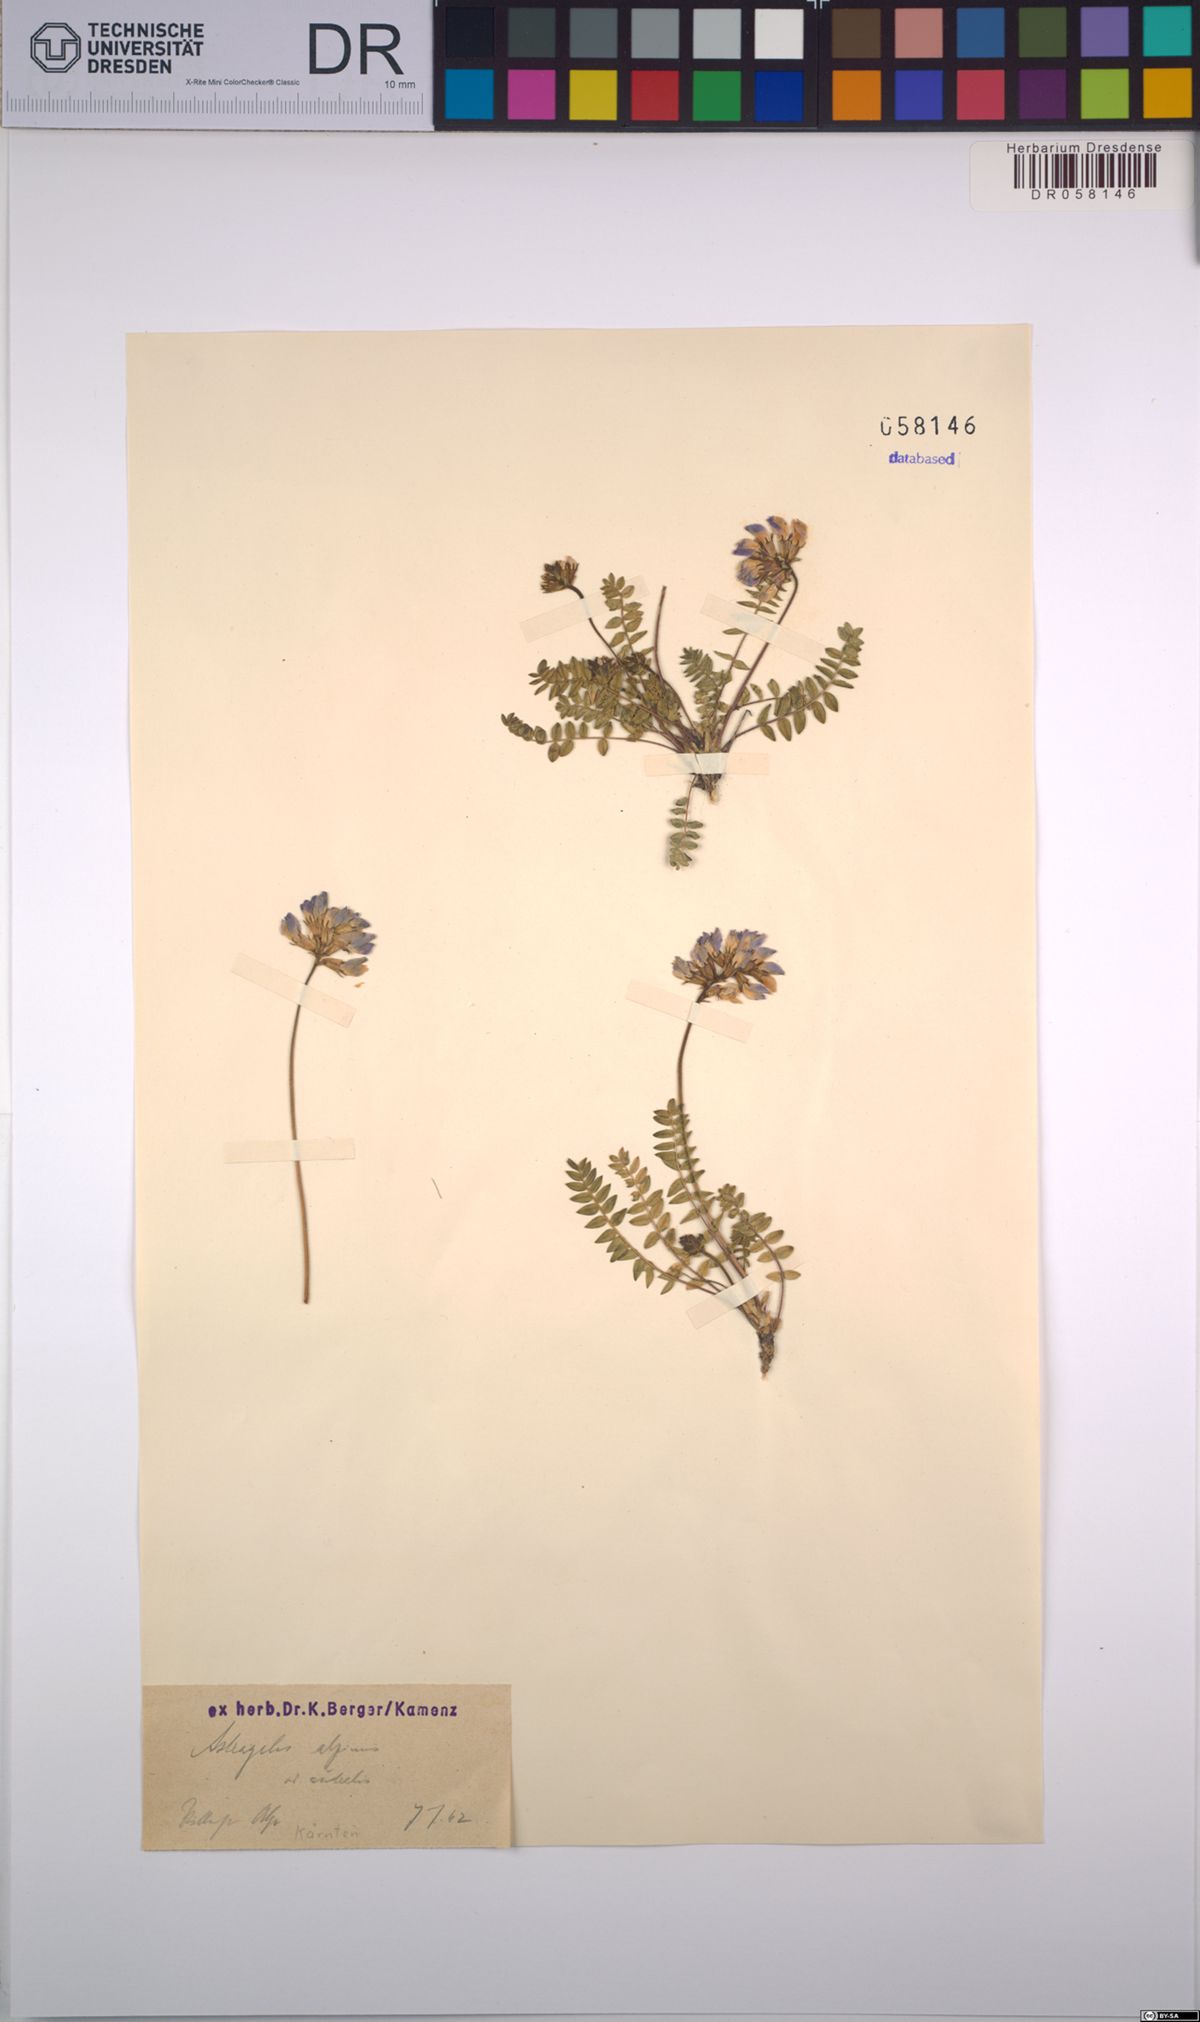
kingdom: Plantae
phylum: Tracheophyta
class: Magnoliopsida
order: Fabales
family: Fabaceae
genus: Astragalus
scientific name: Astragalus alpinus
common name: Alpine milk-vetch
